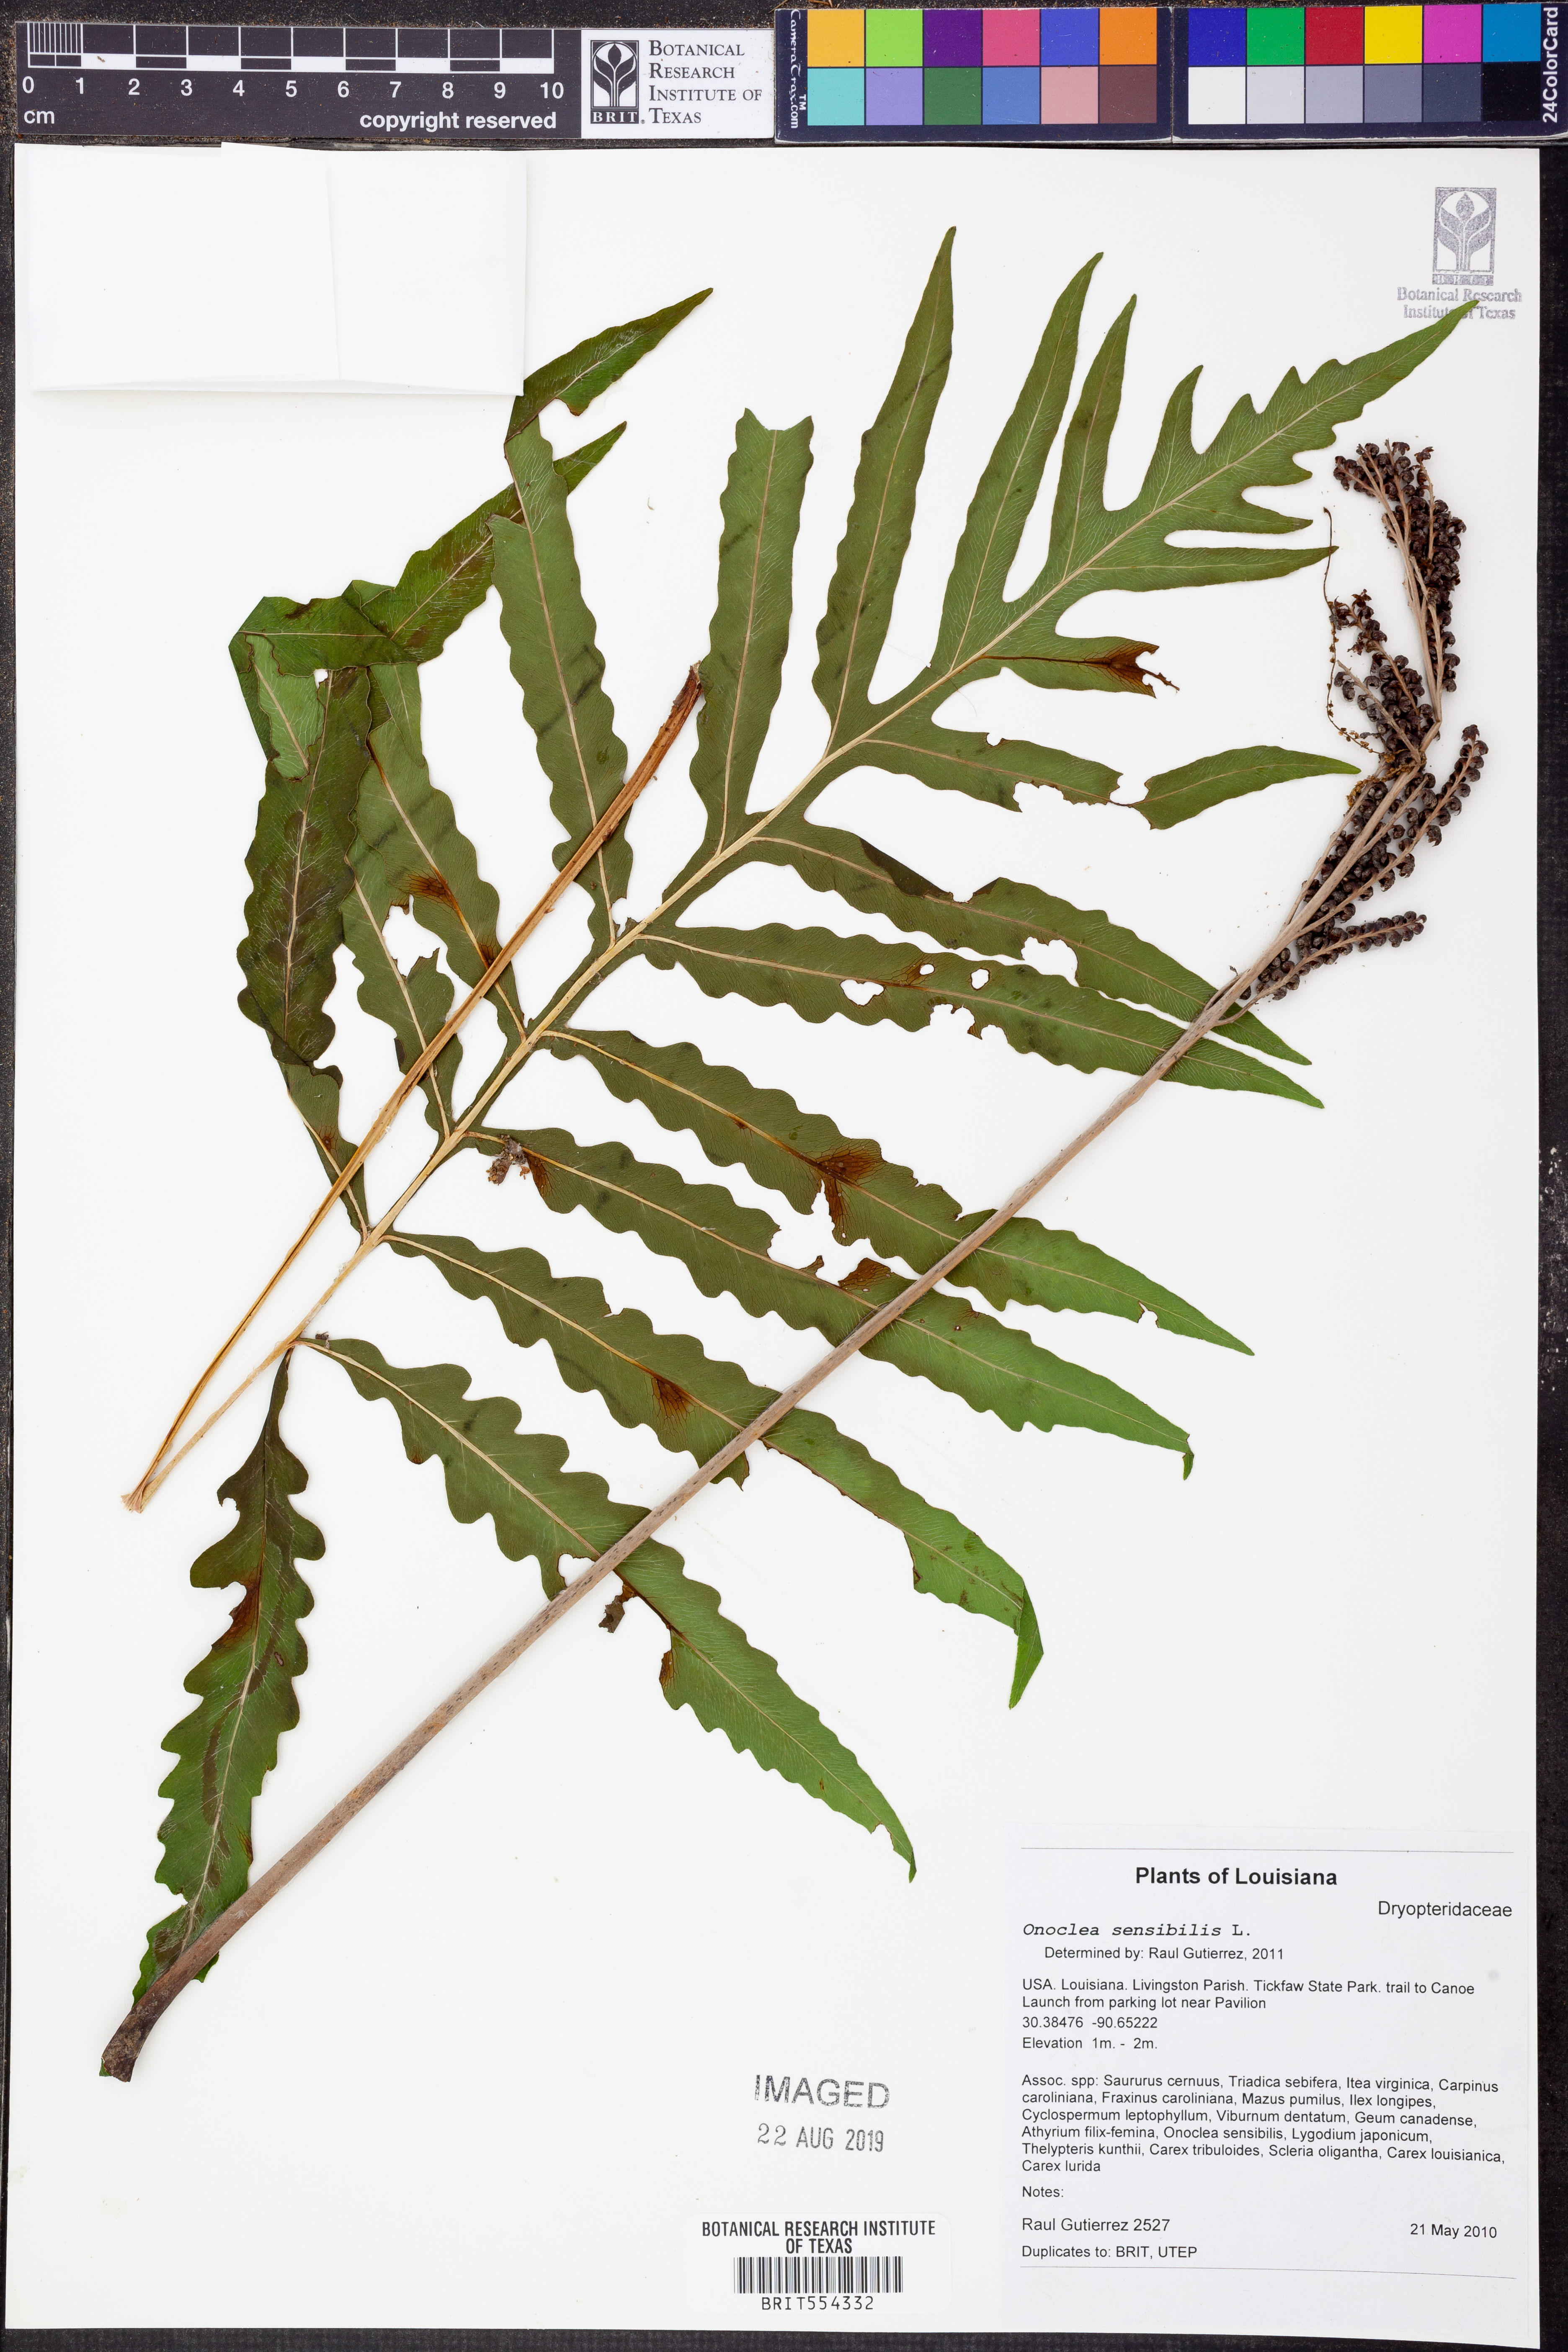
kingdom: Plantae
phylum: Tracheophyta
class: Polypodiopsida
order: Polypodiales
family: Onocleaceae
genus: Onoclea
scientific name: Onoclea sensibilis
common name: Sensitive fern
